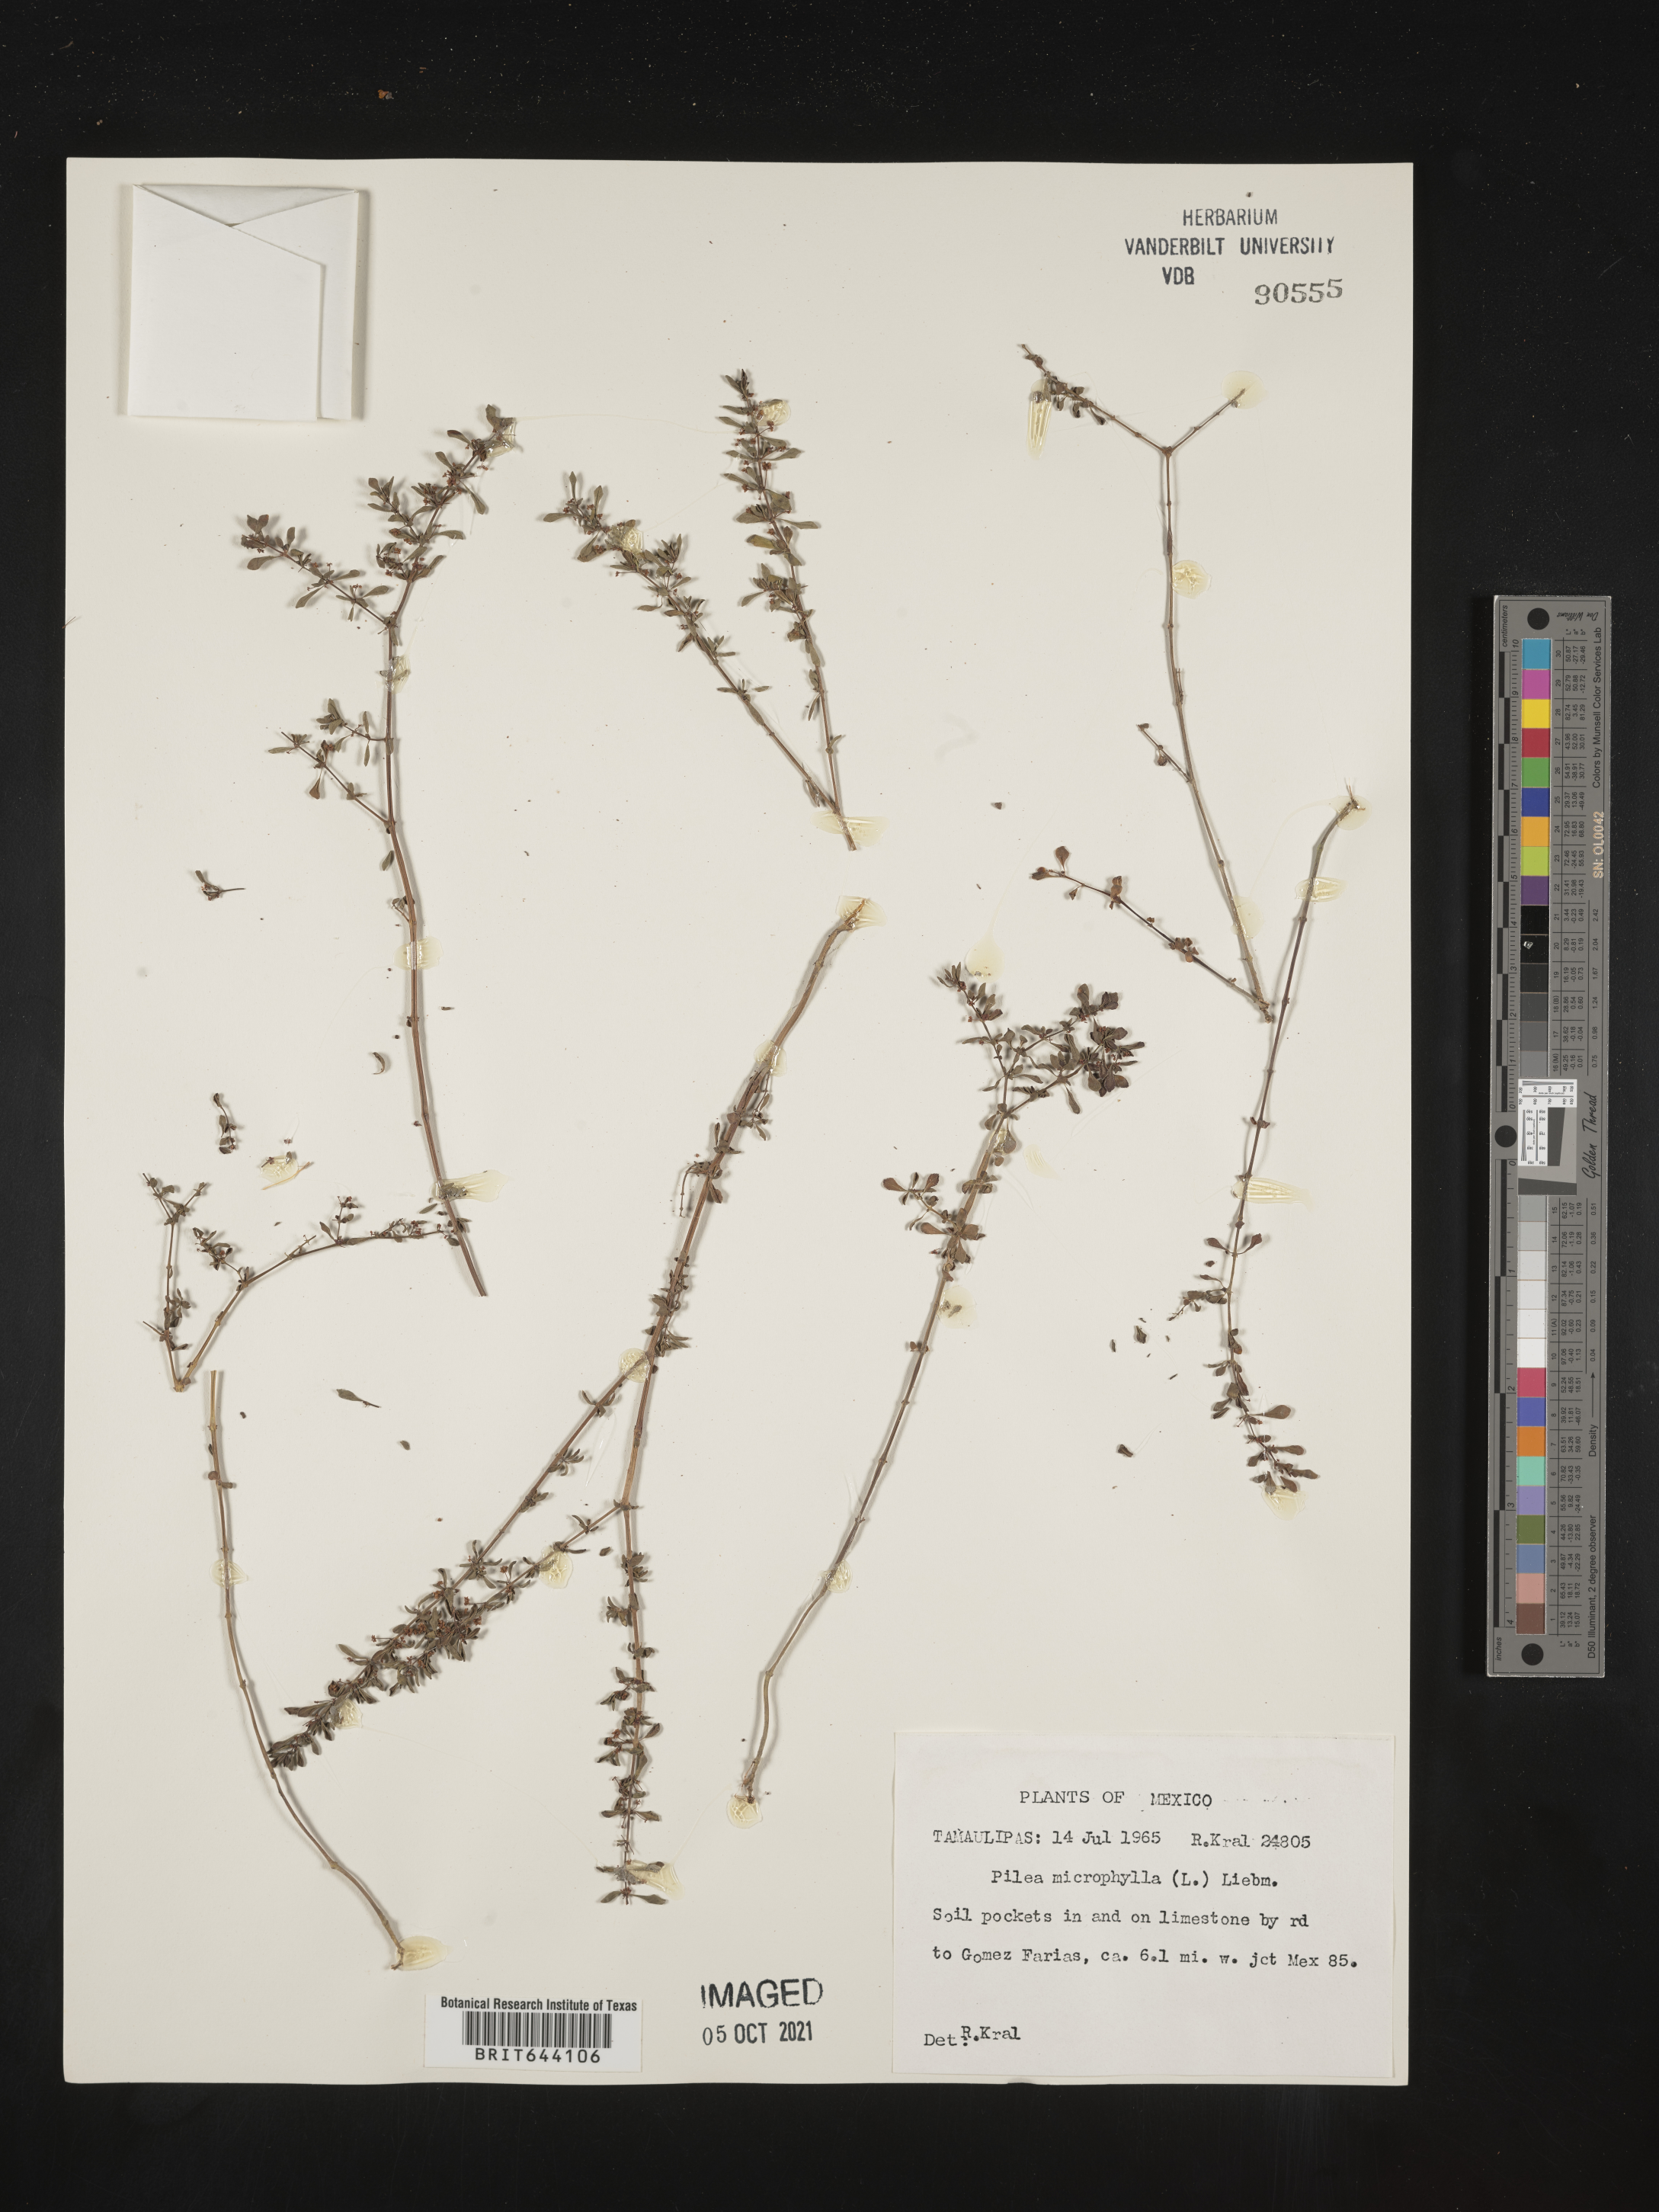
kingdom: Plantae
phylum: Tracheophyta
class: Magnoliopsida
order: Rosales
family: Urticaceae
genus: Pilea
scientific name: Pilea
